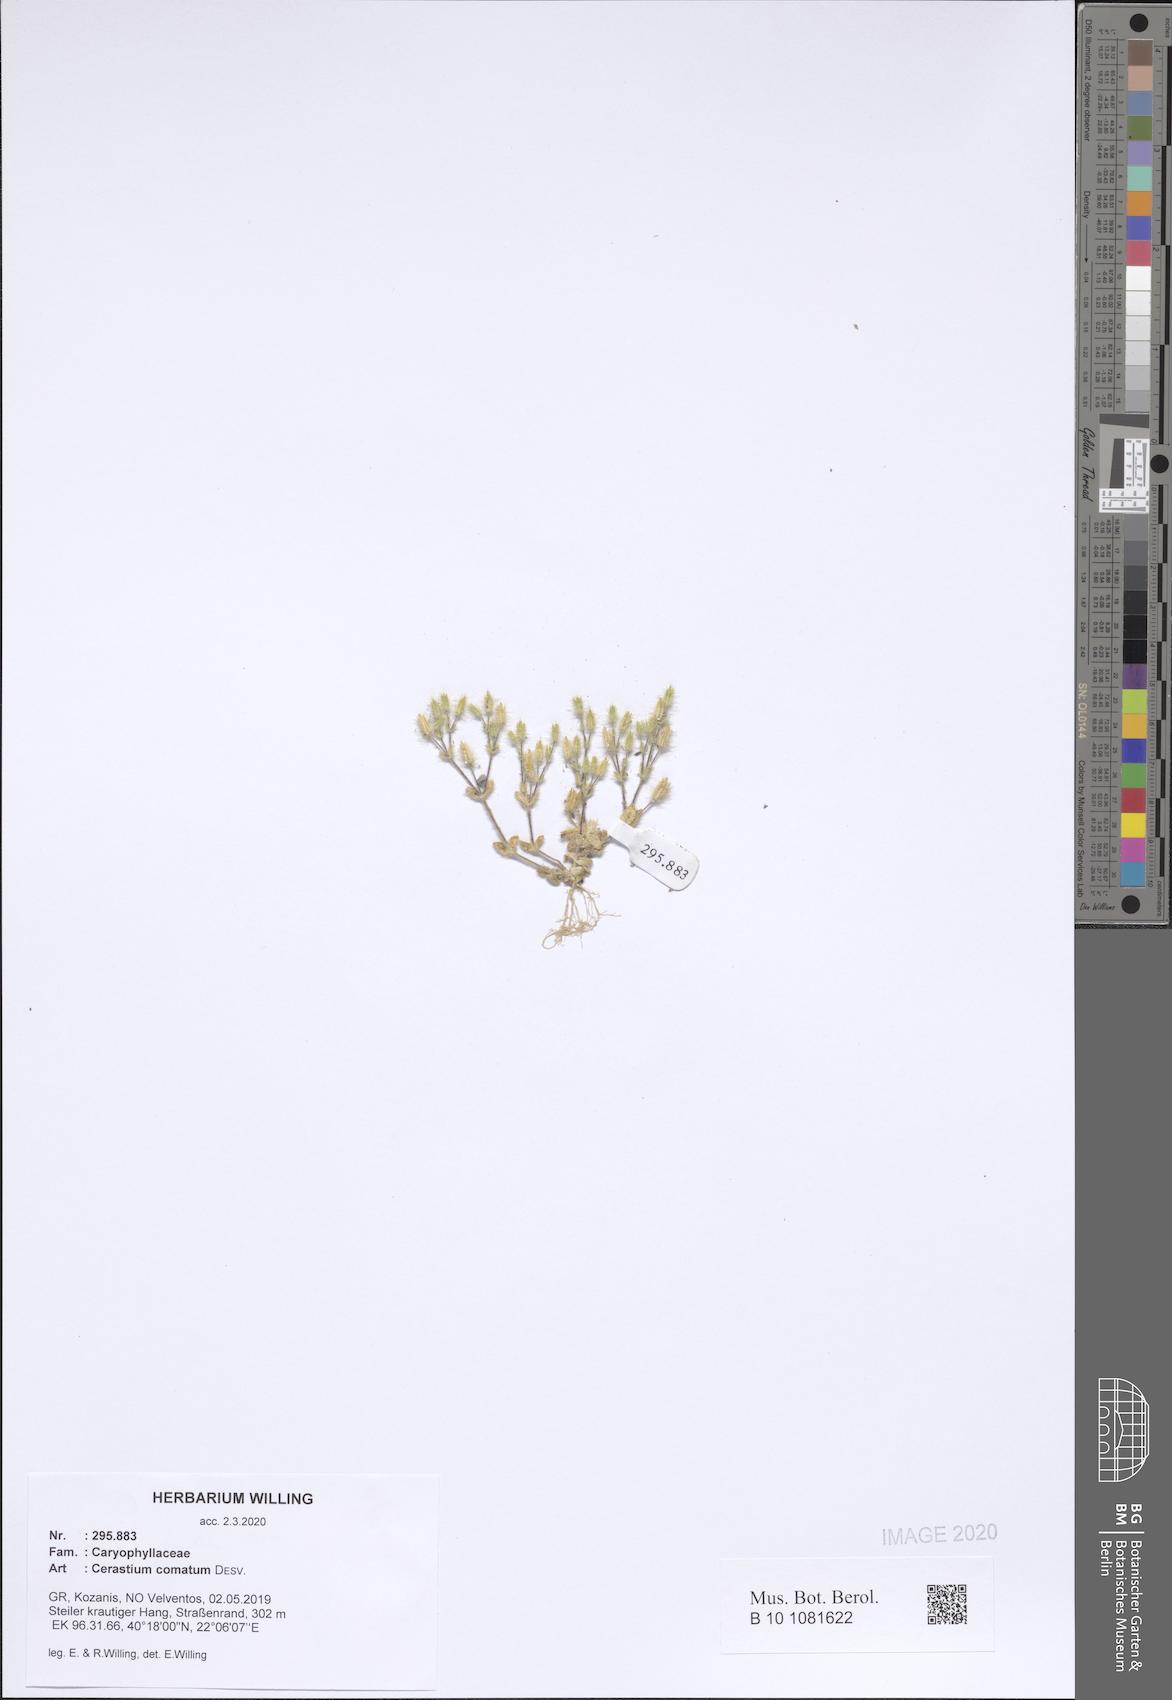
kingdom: Plantae
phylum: Tracheophyta
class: Magnoliopsida
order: Caryophyllales
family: Caryophyllaceae
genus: Cerastium
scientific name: Cerastium comatum
